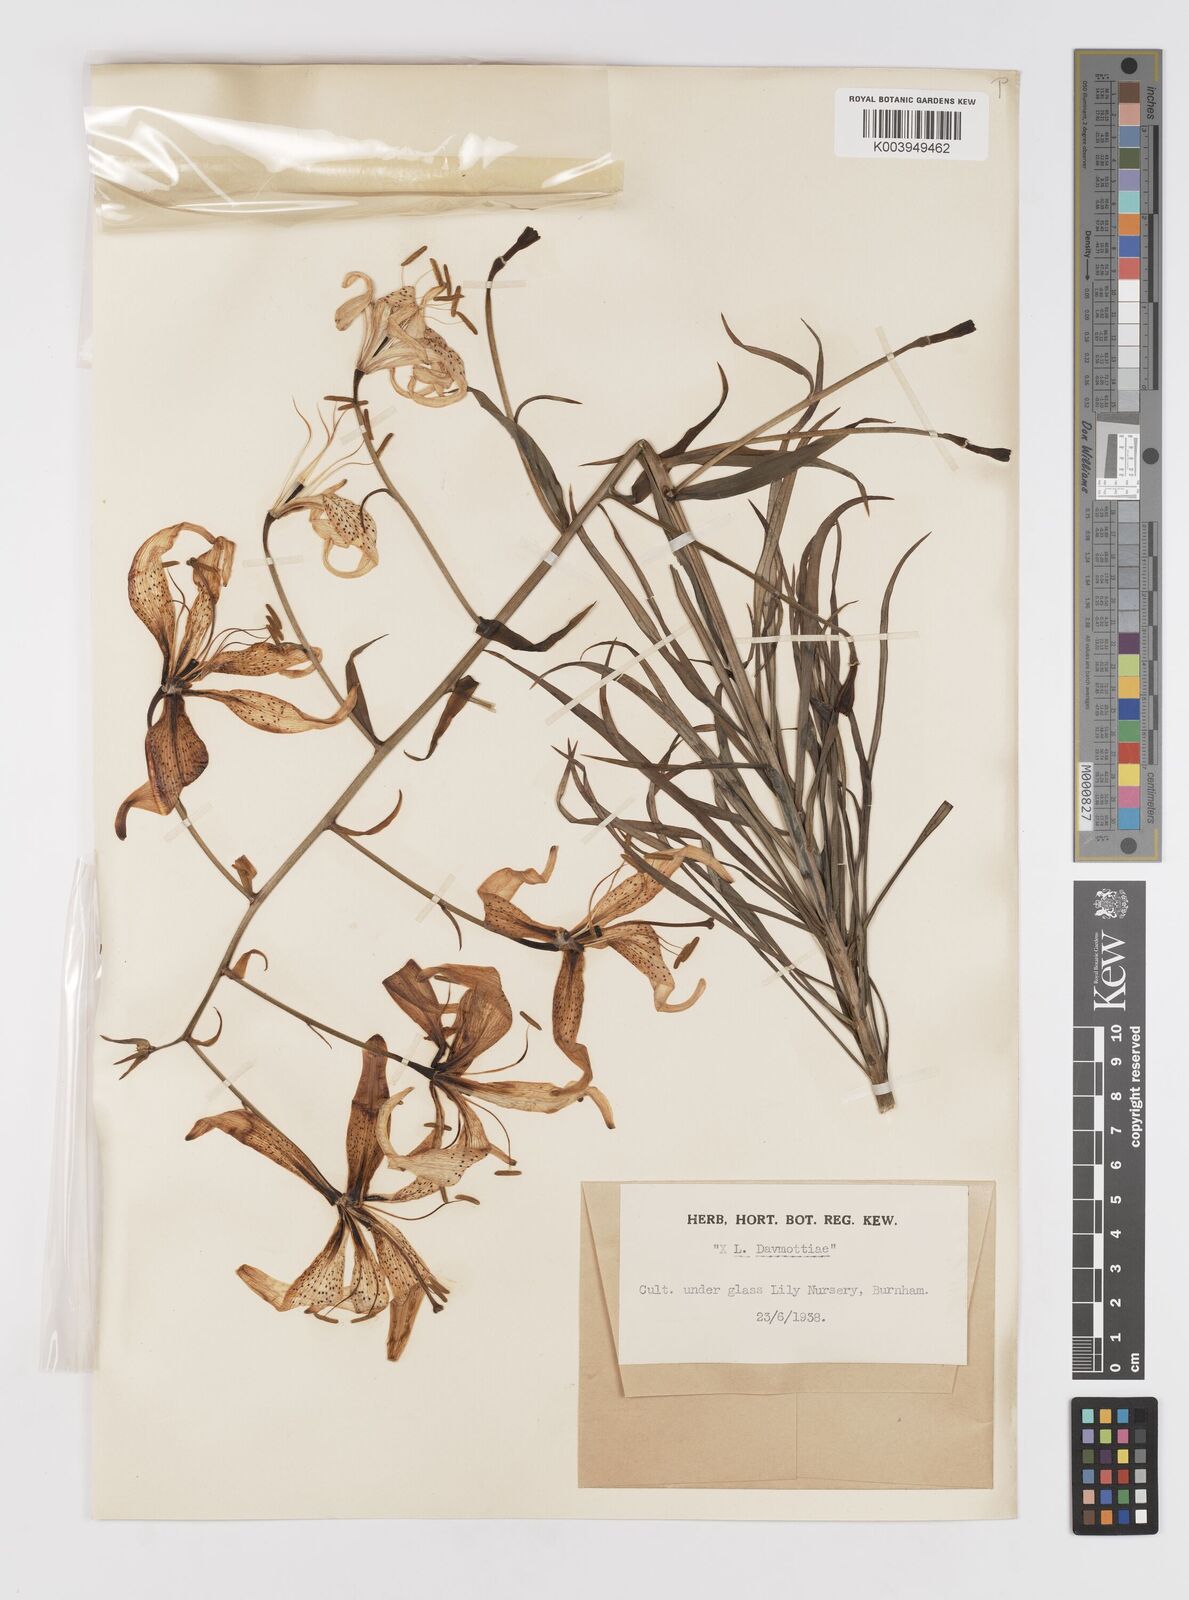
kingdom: Plantae
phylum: Tracheophyta
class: Liliopsida
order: Liliales
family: Liliaceae
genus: Lilium
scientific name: Lilium
